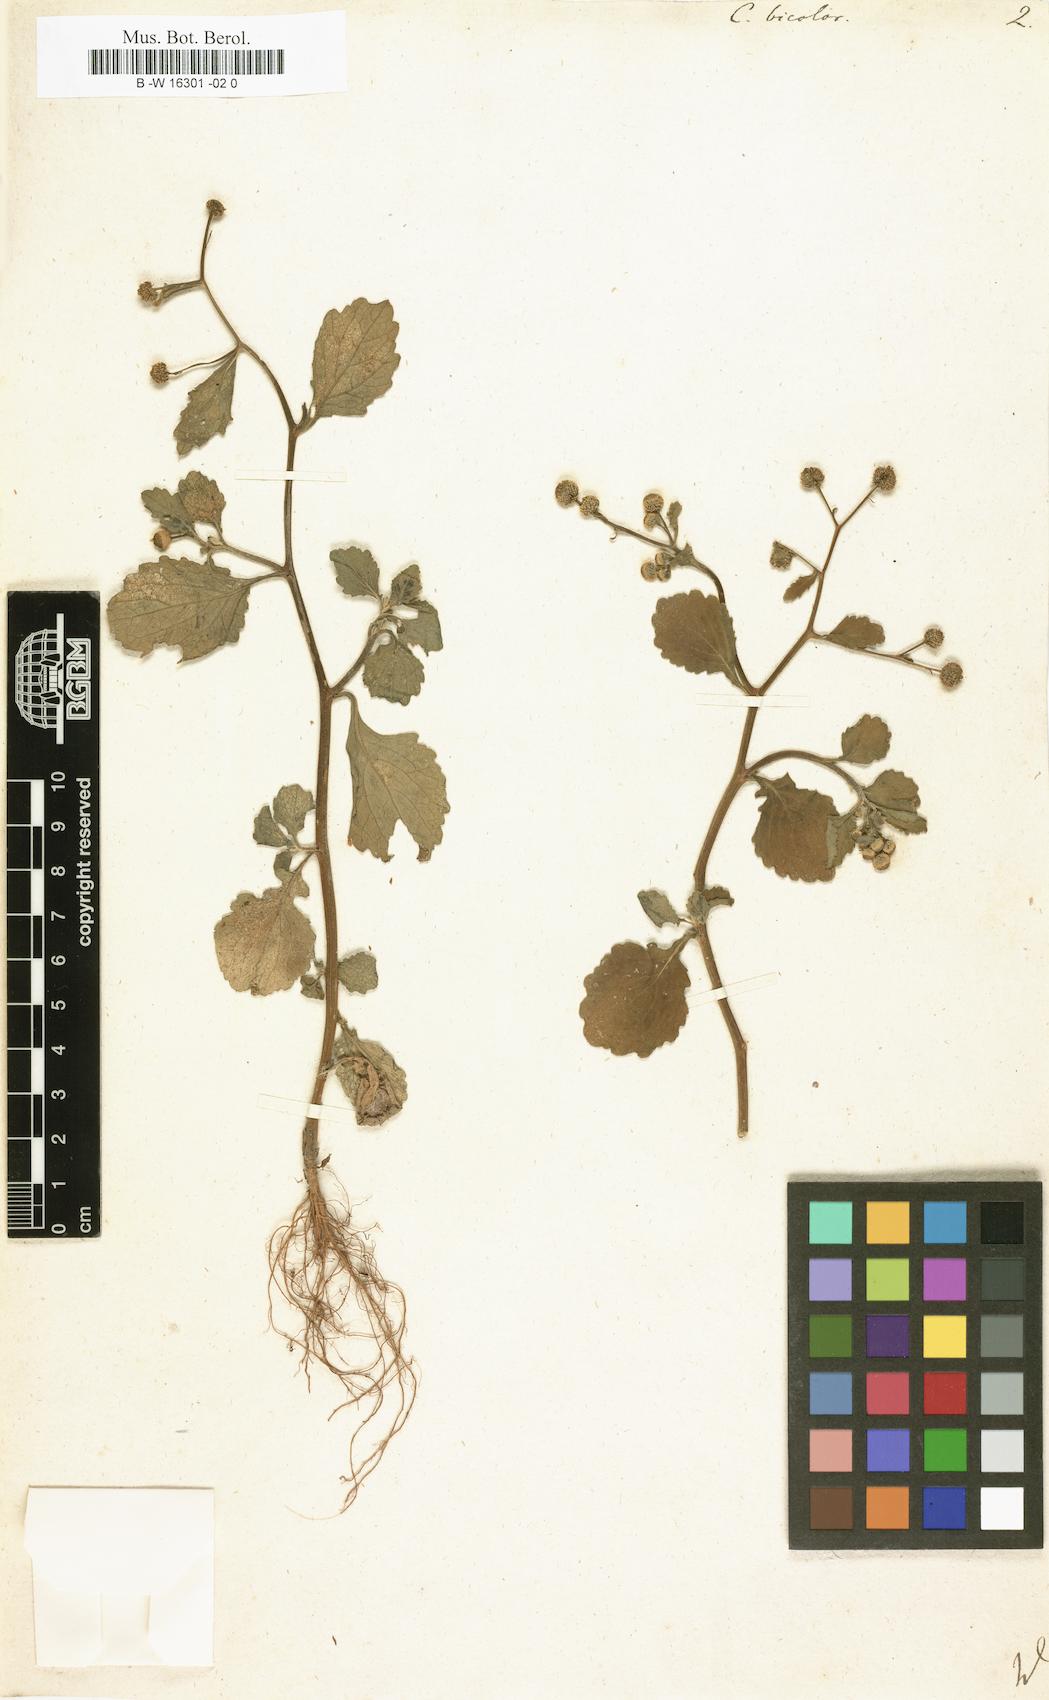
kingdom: Plantae
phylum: Tracheophyta
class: Magnoliopsida
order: Asterales
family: Asteraceae
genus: Dichrocephala
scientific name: Dichrocephala integrifolia
